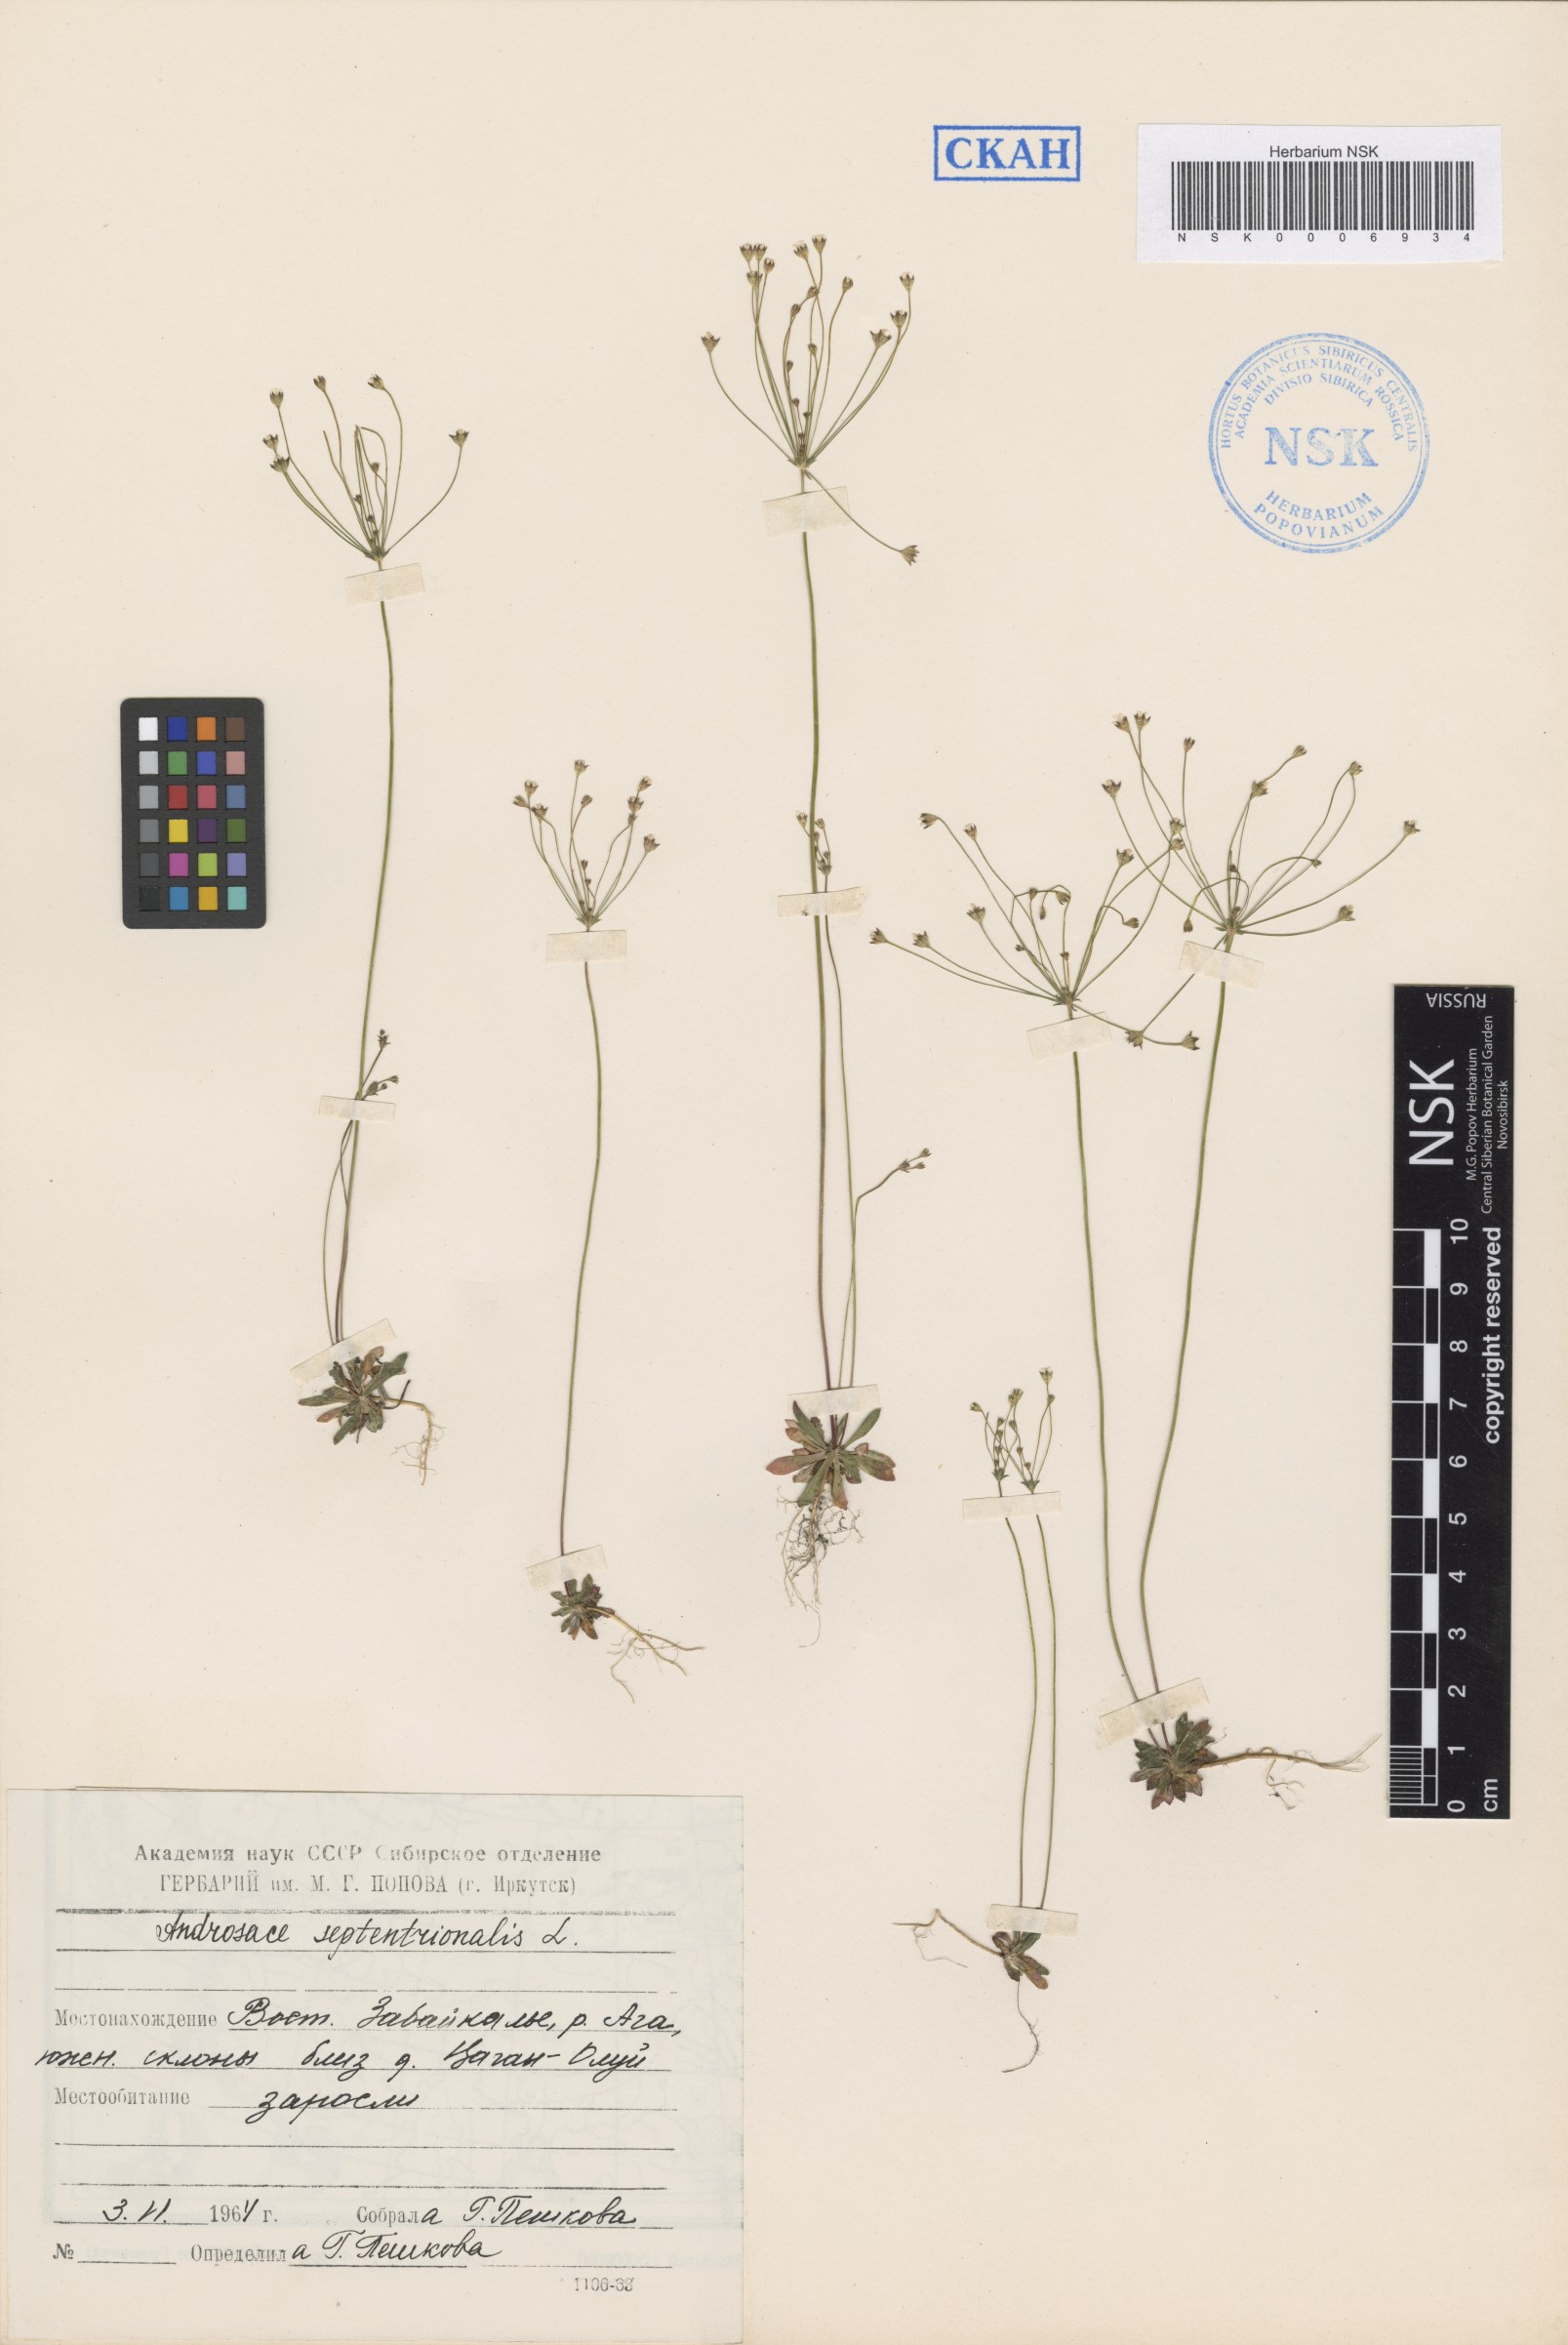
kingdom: Plantae
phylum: Tracheophyta
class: Magnoliopsida
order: Ericales
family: Primulaceae
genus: Androsace
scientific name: Androsace septentrionalis
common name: Hairy northern fairy-candelabra
